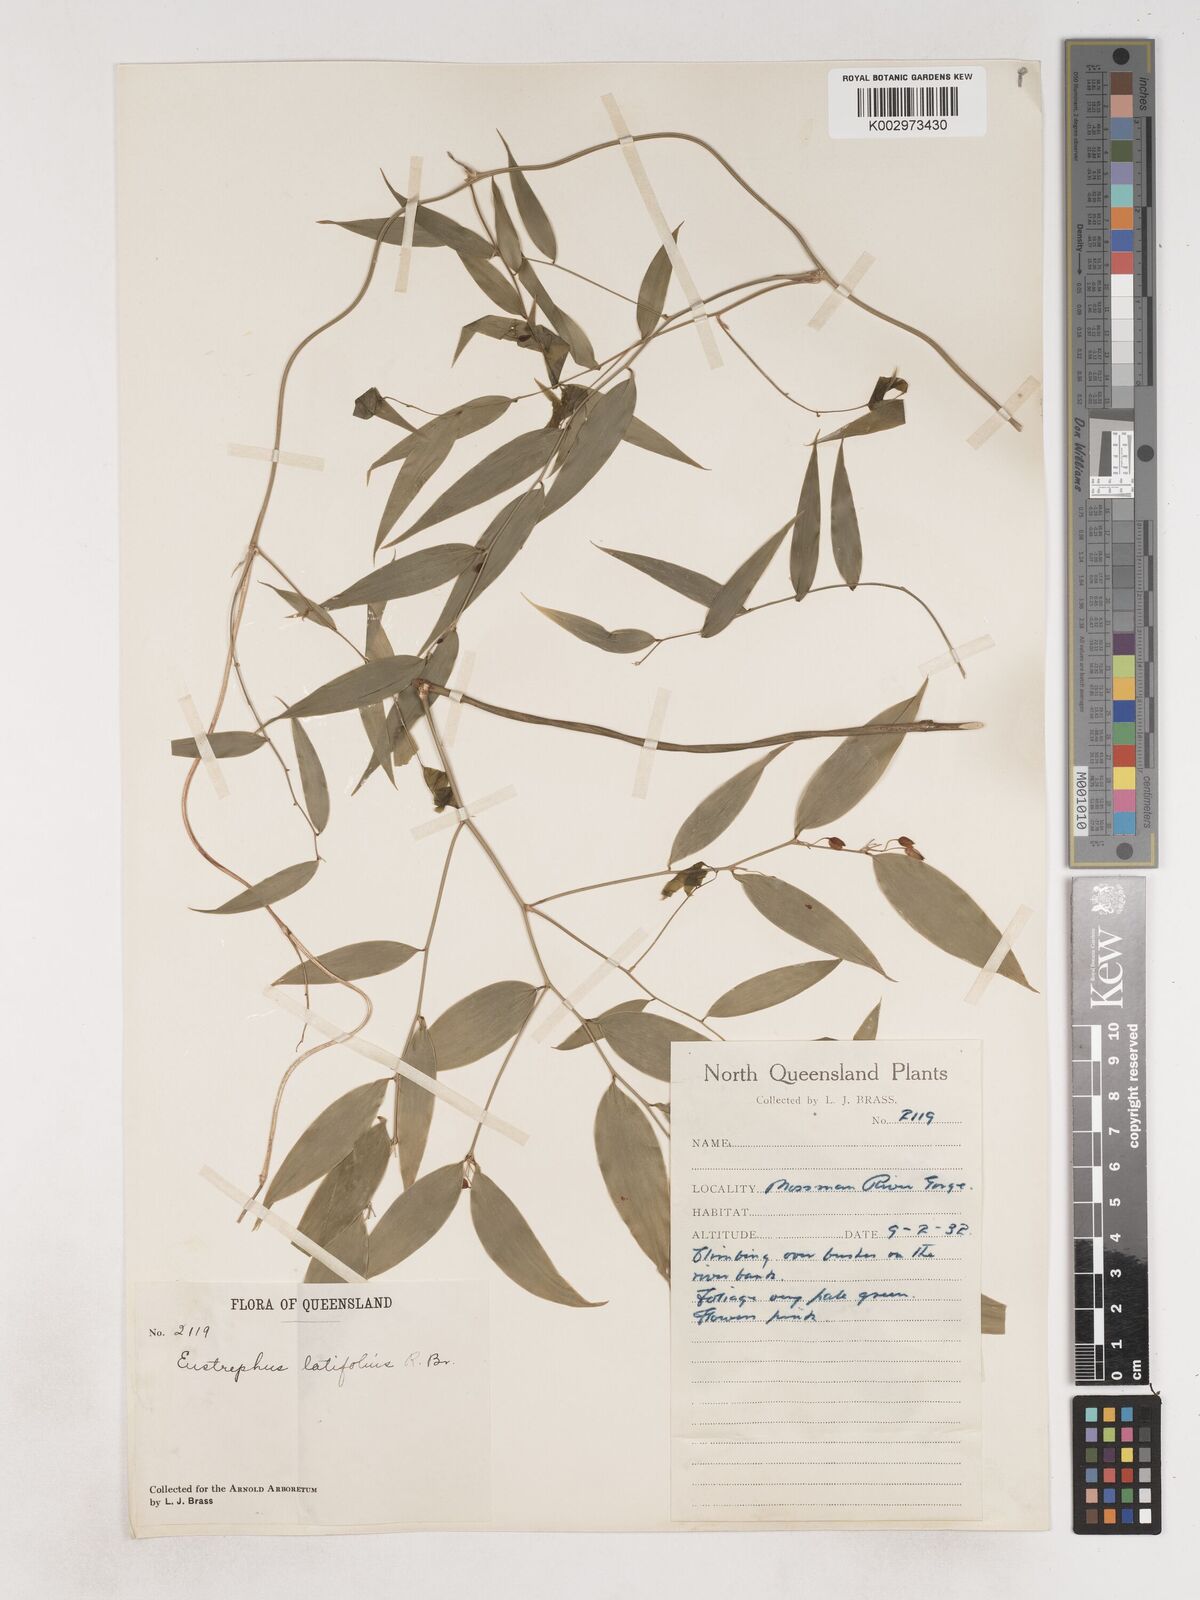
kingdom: Plantae
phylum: Tracheophyta
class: Liliopsida
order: Asparagales
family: Asparagaceae
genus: Eustrephus
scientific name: Eustrephus latifolius
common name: Orangevine
